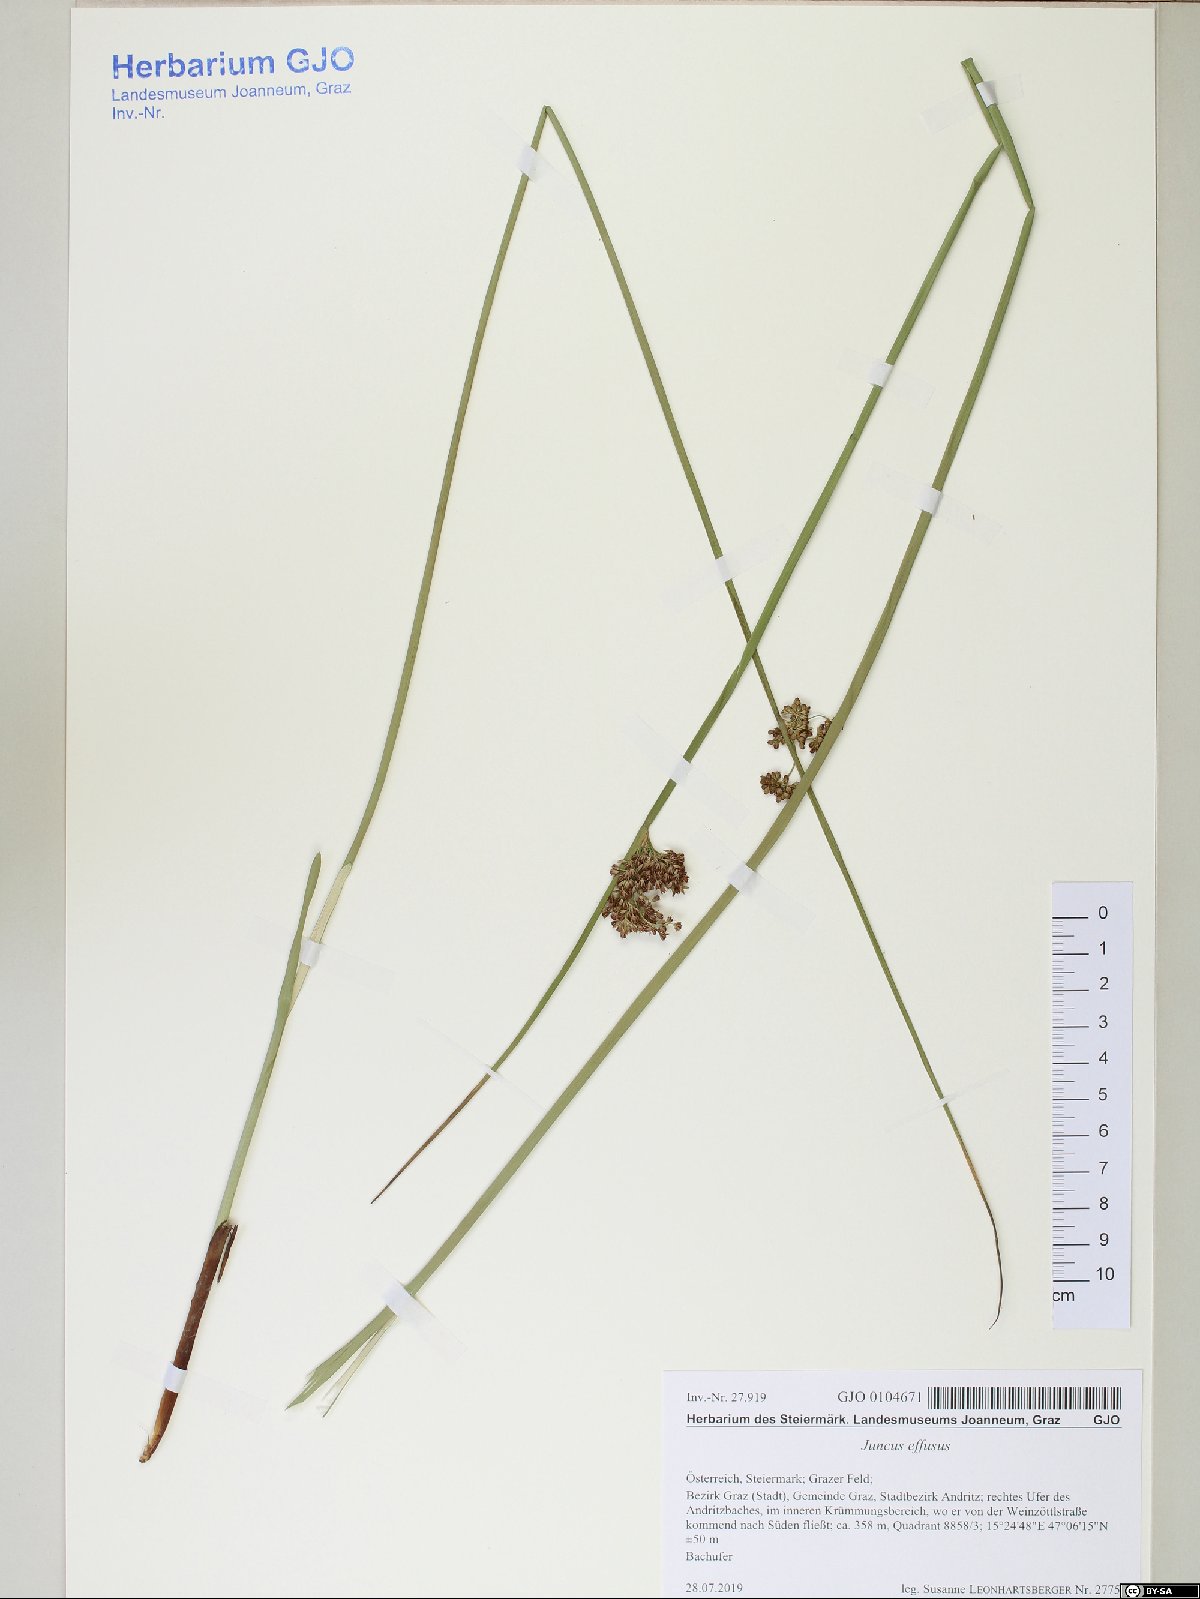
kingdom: Plantae
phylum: Tracheophyta
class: Liliopsida
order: Poales
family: Juncaceae
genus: Juncus
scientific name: Juncus effusus
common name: Soft rush
